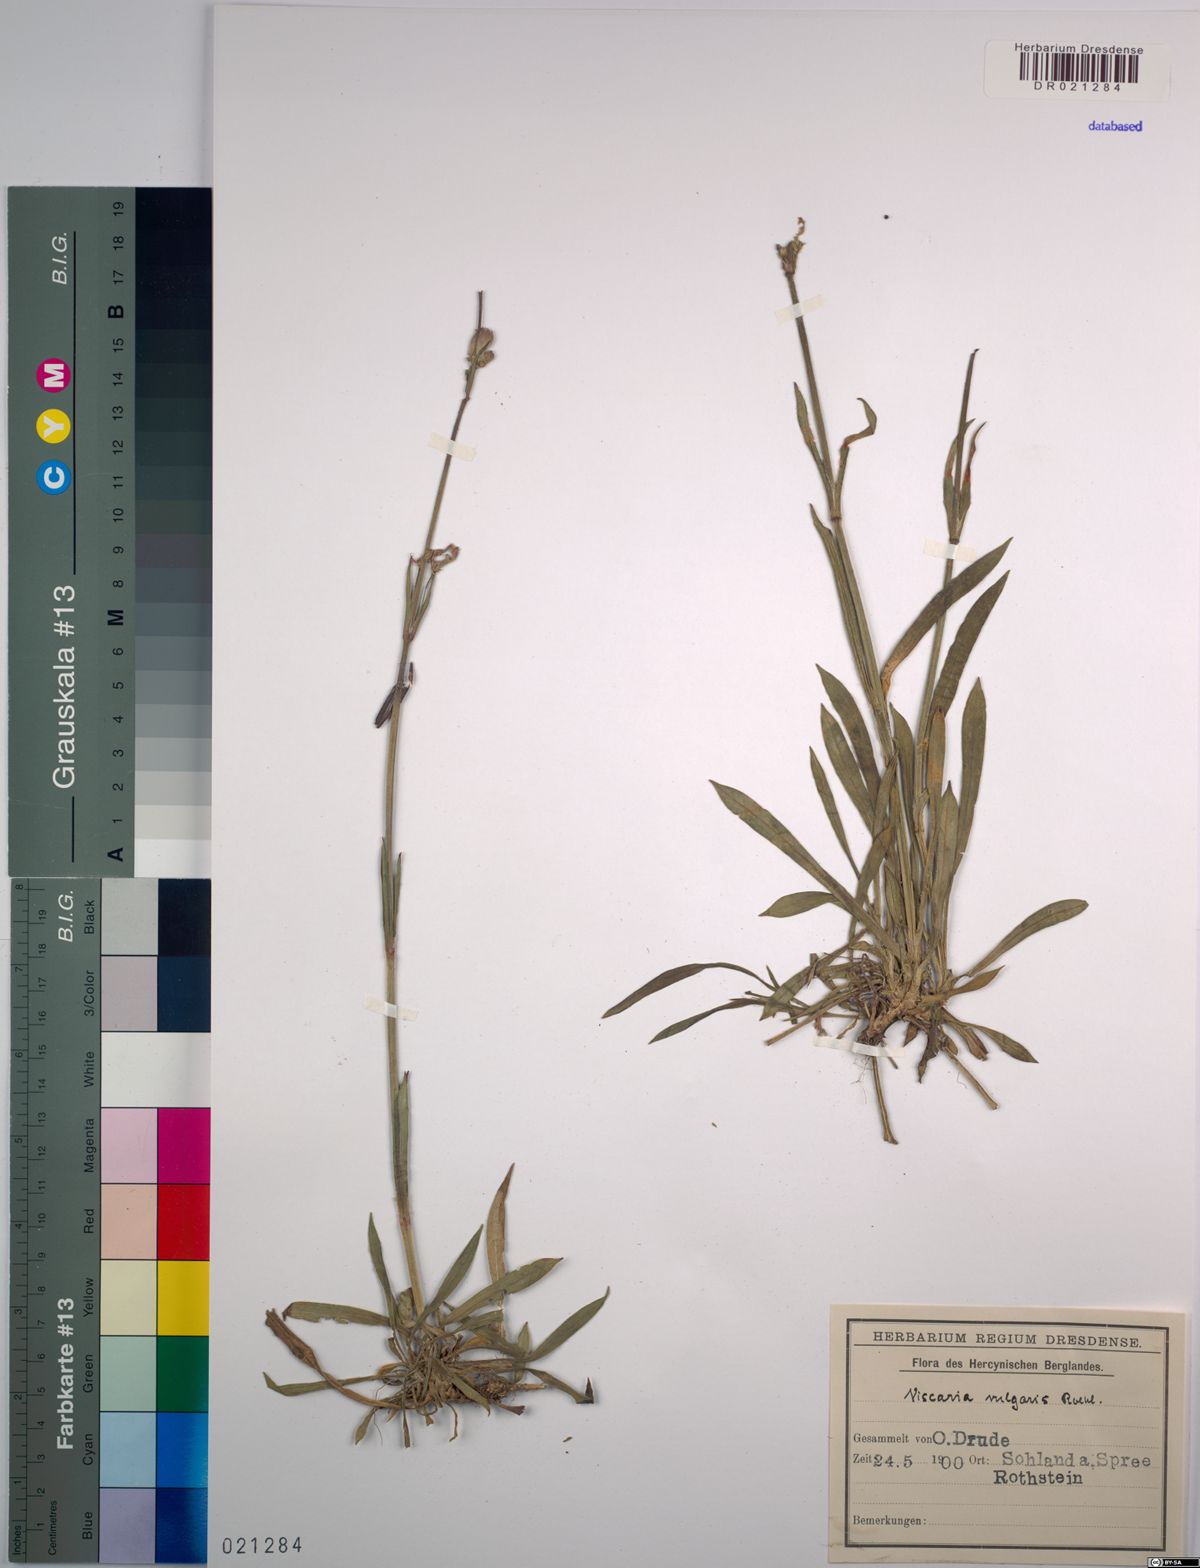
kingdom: Plantae
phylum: Tracheophyta
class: Magnoliopsida
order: Caryophyllales
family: Caryophyllaceae
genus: Viscaria
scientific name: Viscaria vulgaris
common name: Clammy campion
